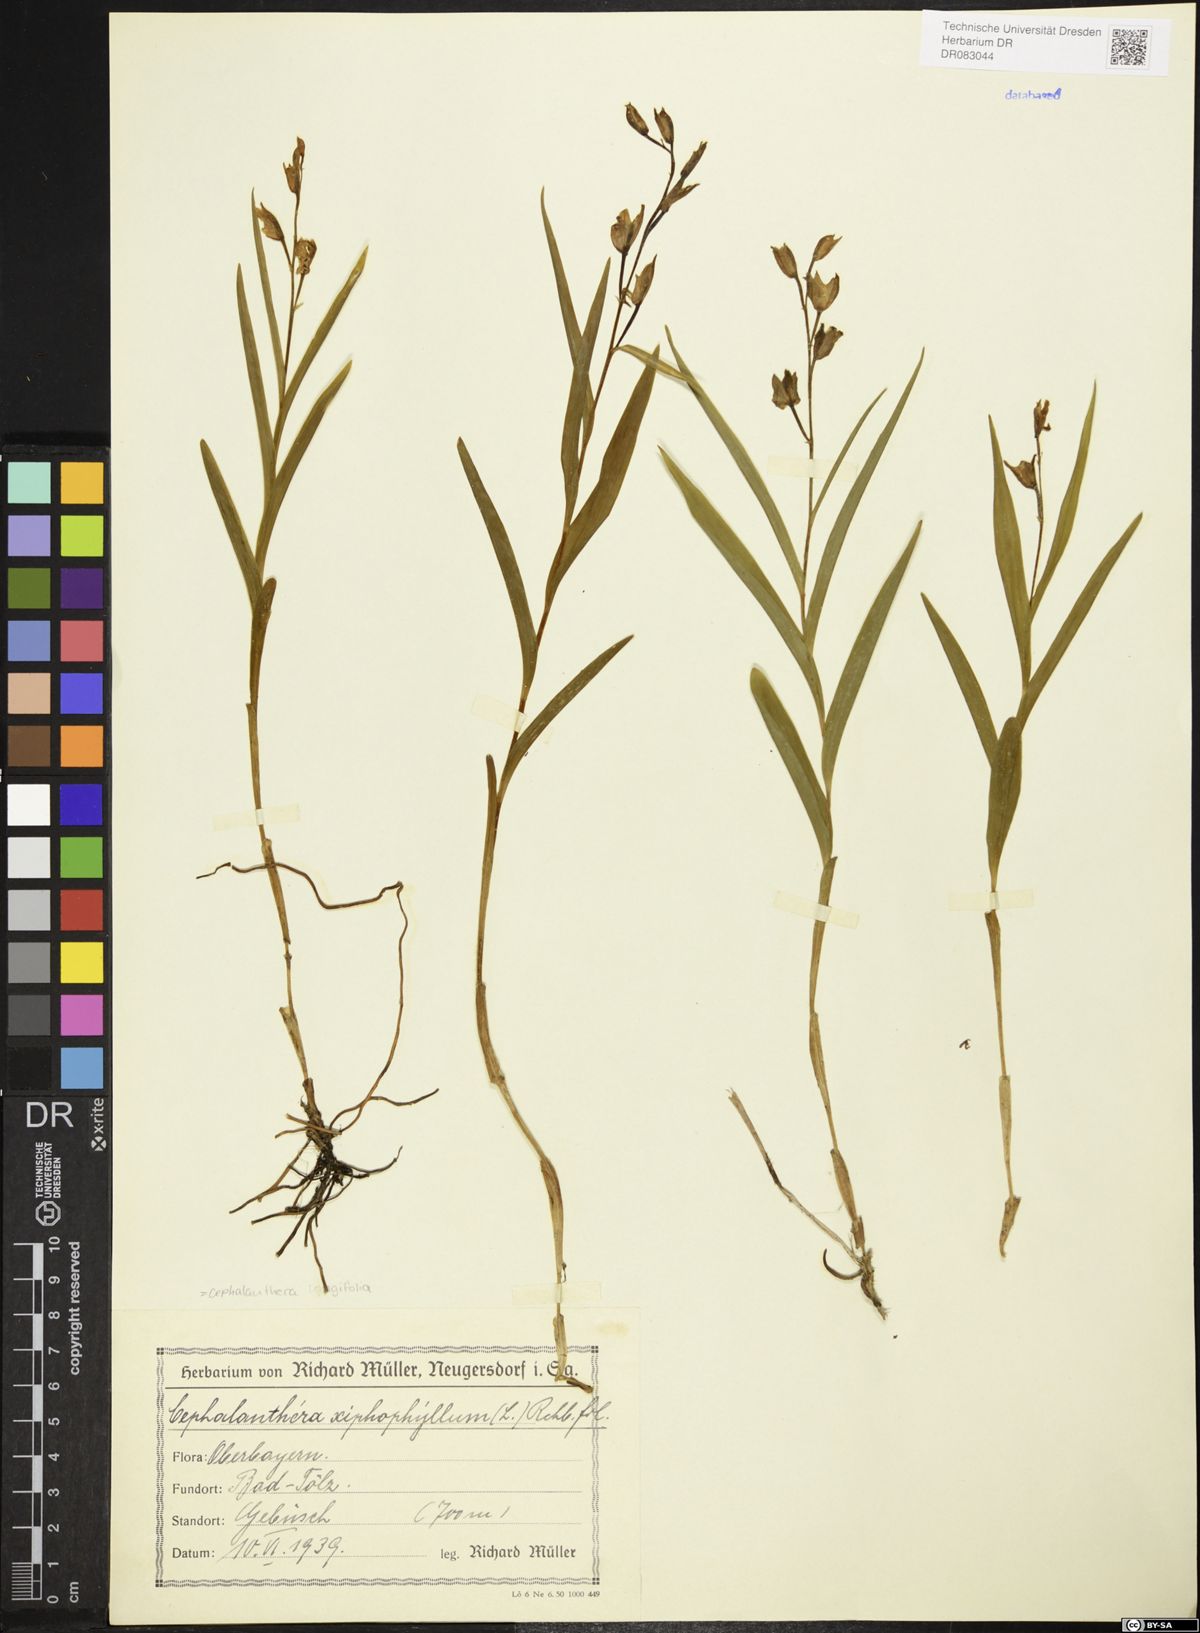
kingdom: Plantae
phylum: Tracheophyta
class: Liliopsida
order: Asparagales
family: Orchidaceae
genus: Cephalanthera
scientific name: Cephalanthera longifolia
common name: Narrow-leaved helleborine
